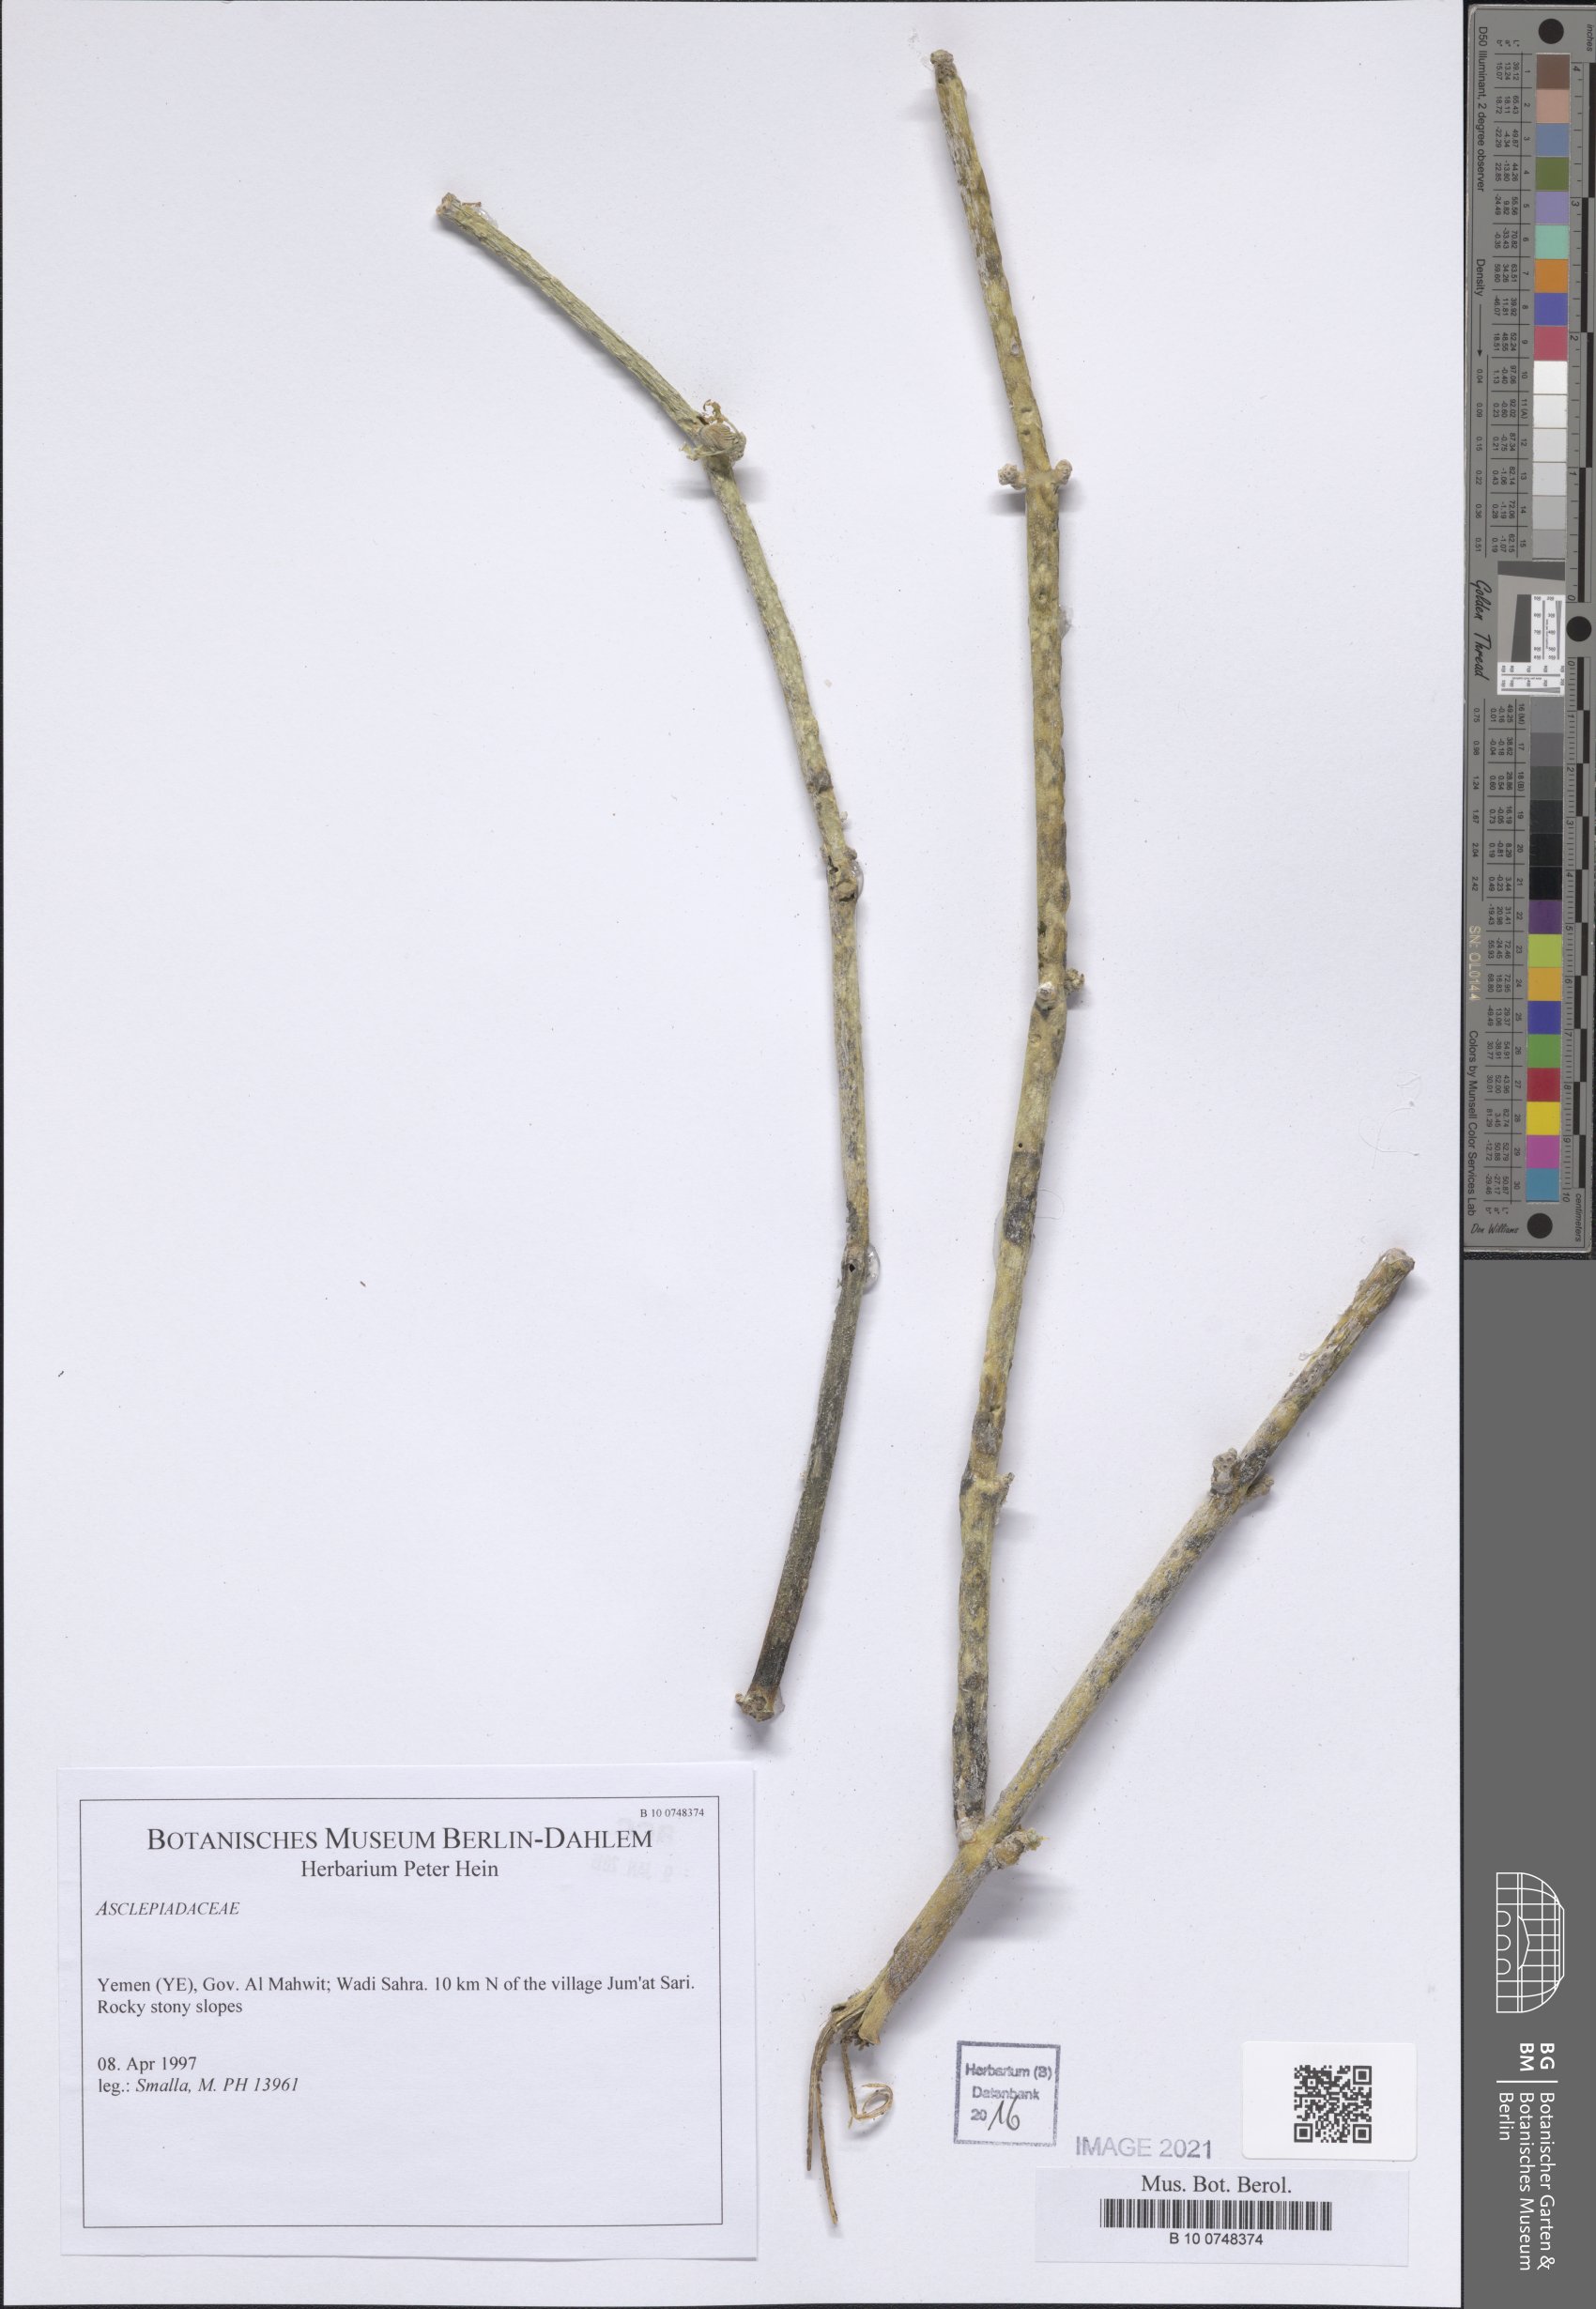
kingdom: Plantae
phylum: Tracheophyta
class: Magnoliopsida
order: Gentianales
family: Apocynaceae
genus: Cynanchum
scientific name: Cynanchum viminale
